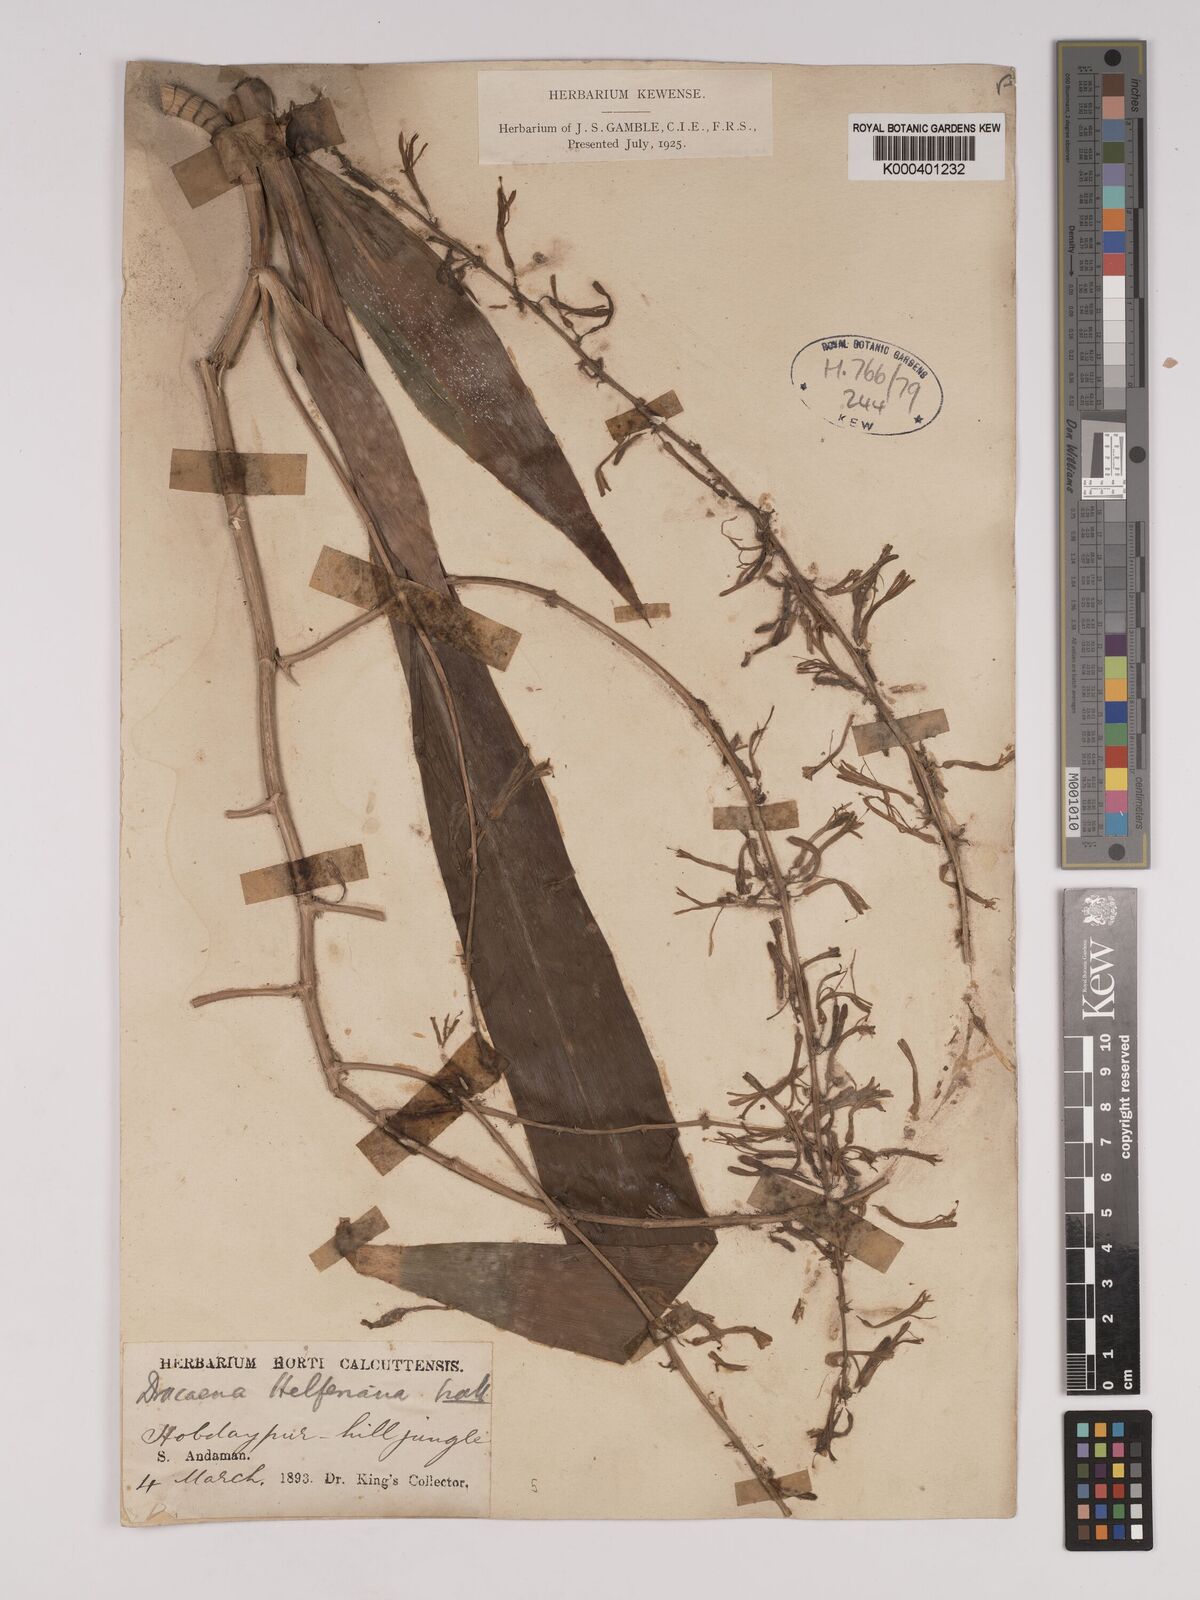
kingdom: Plantae
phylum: Tracheophyta
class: Liliopsida
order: Asparagales
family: Asparagaceae
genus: Dracaena
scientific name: Dracaena griffithii
